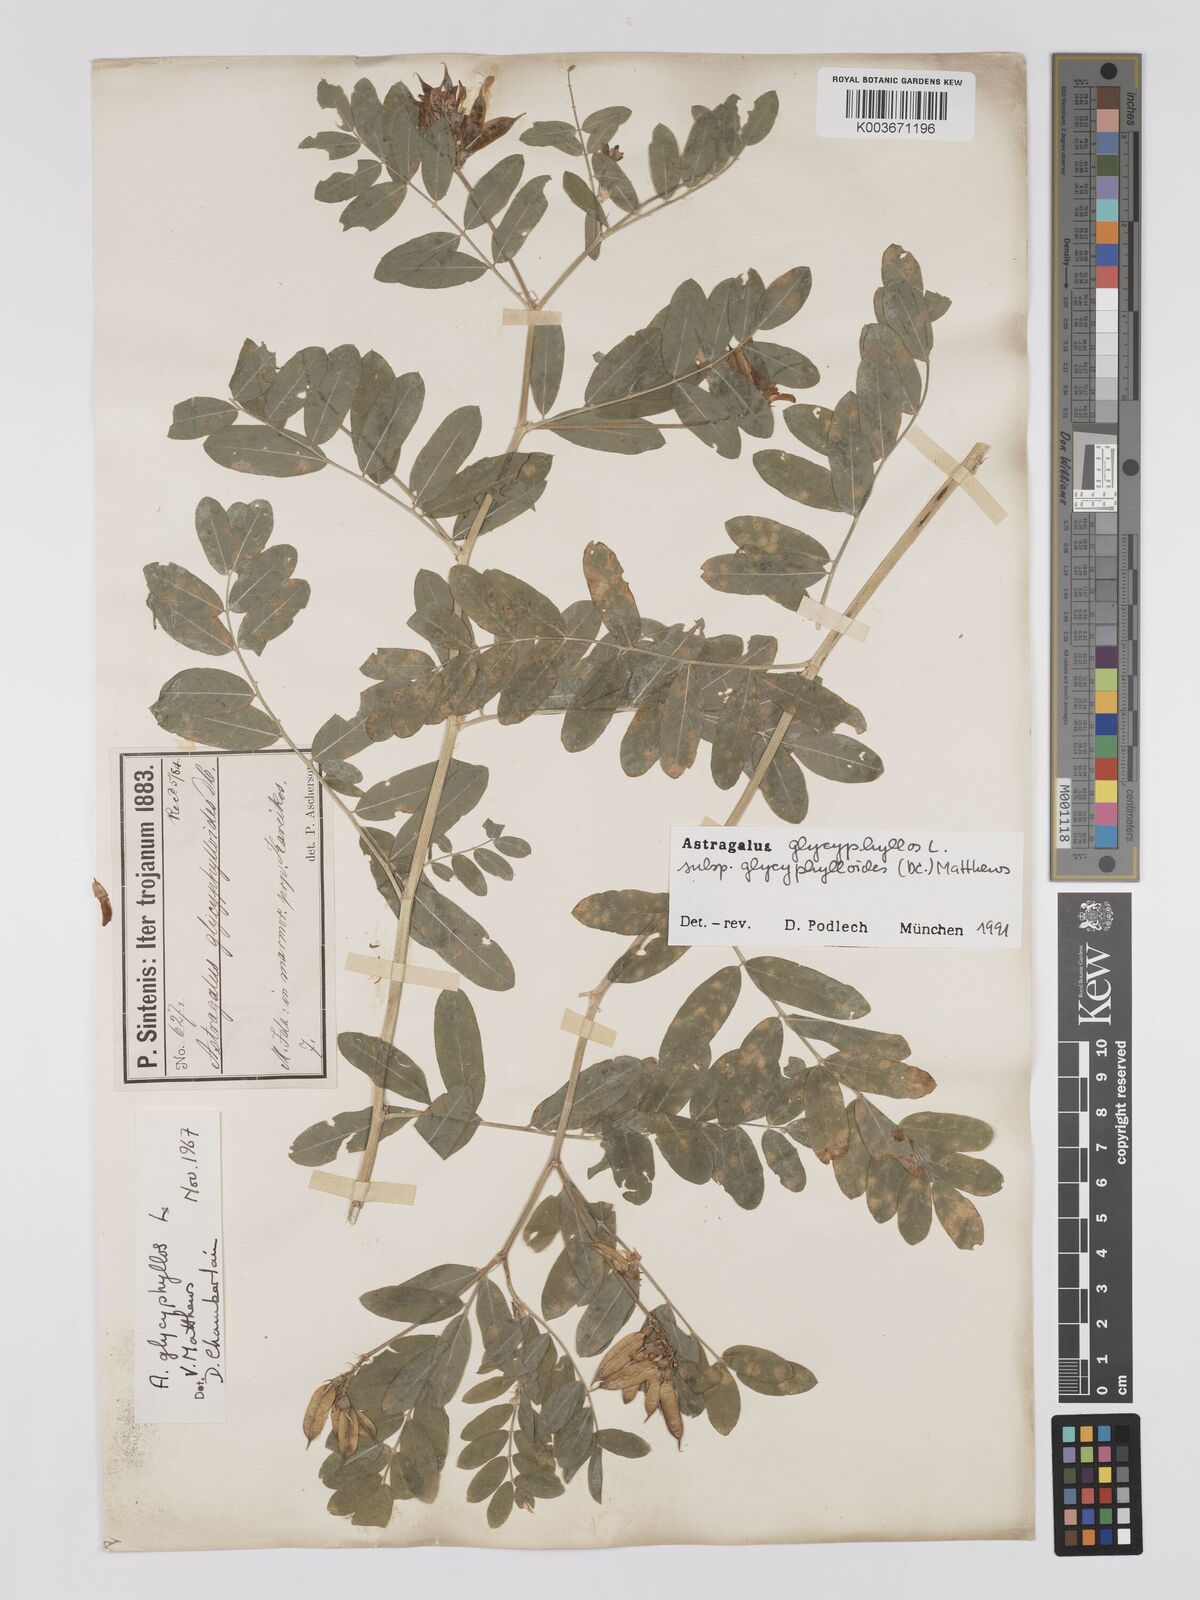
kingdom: Plantae
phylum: Tracheophyta
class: Magnoliopsida
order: Fabales
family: Fabaceae
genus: Astragalus
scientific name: Astragalus glycyphylloides
